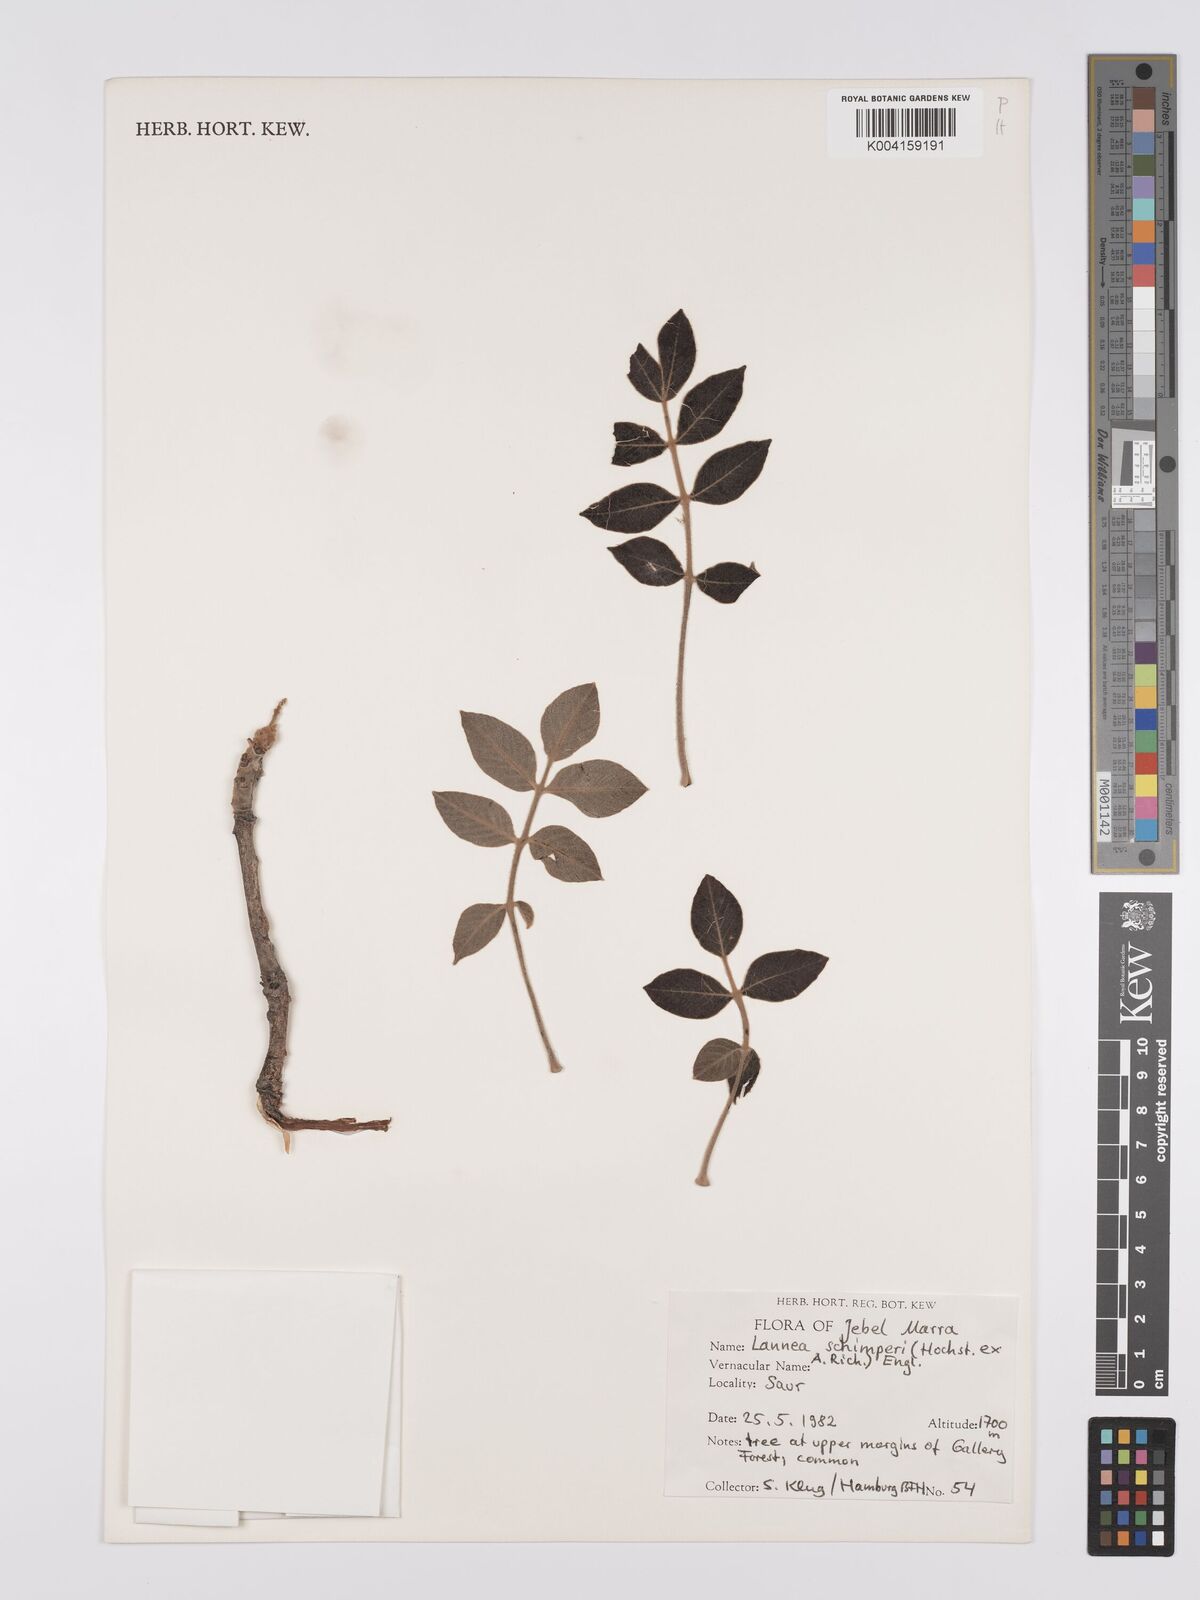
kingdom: Plantae
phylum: Tracheophyta
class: Magnoliopsida
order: Sapindales
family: Anacardiaceae
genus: Lannea
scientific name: Lannea schimperi
